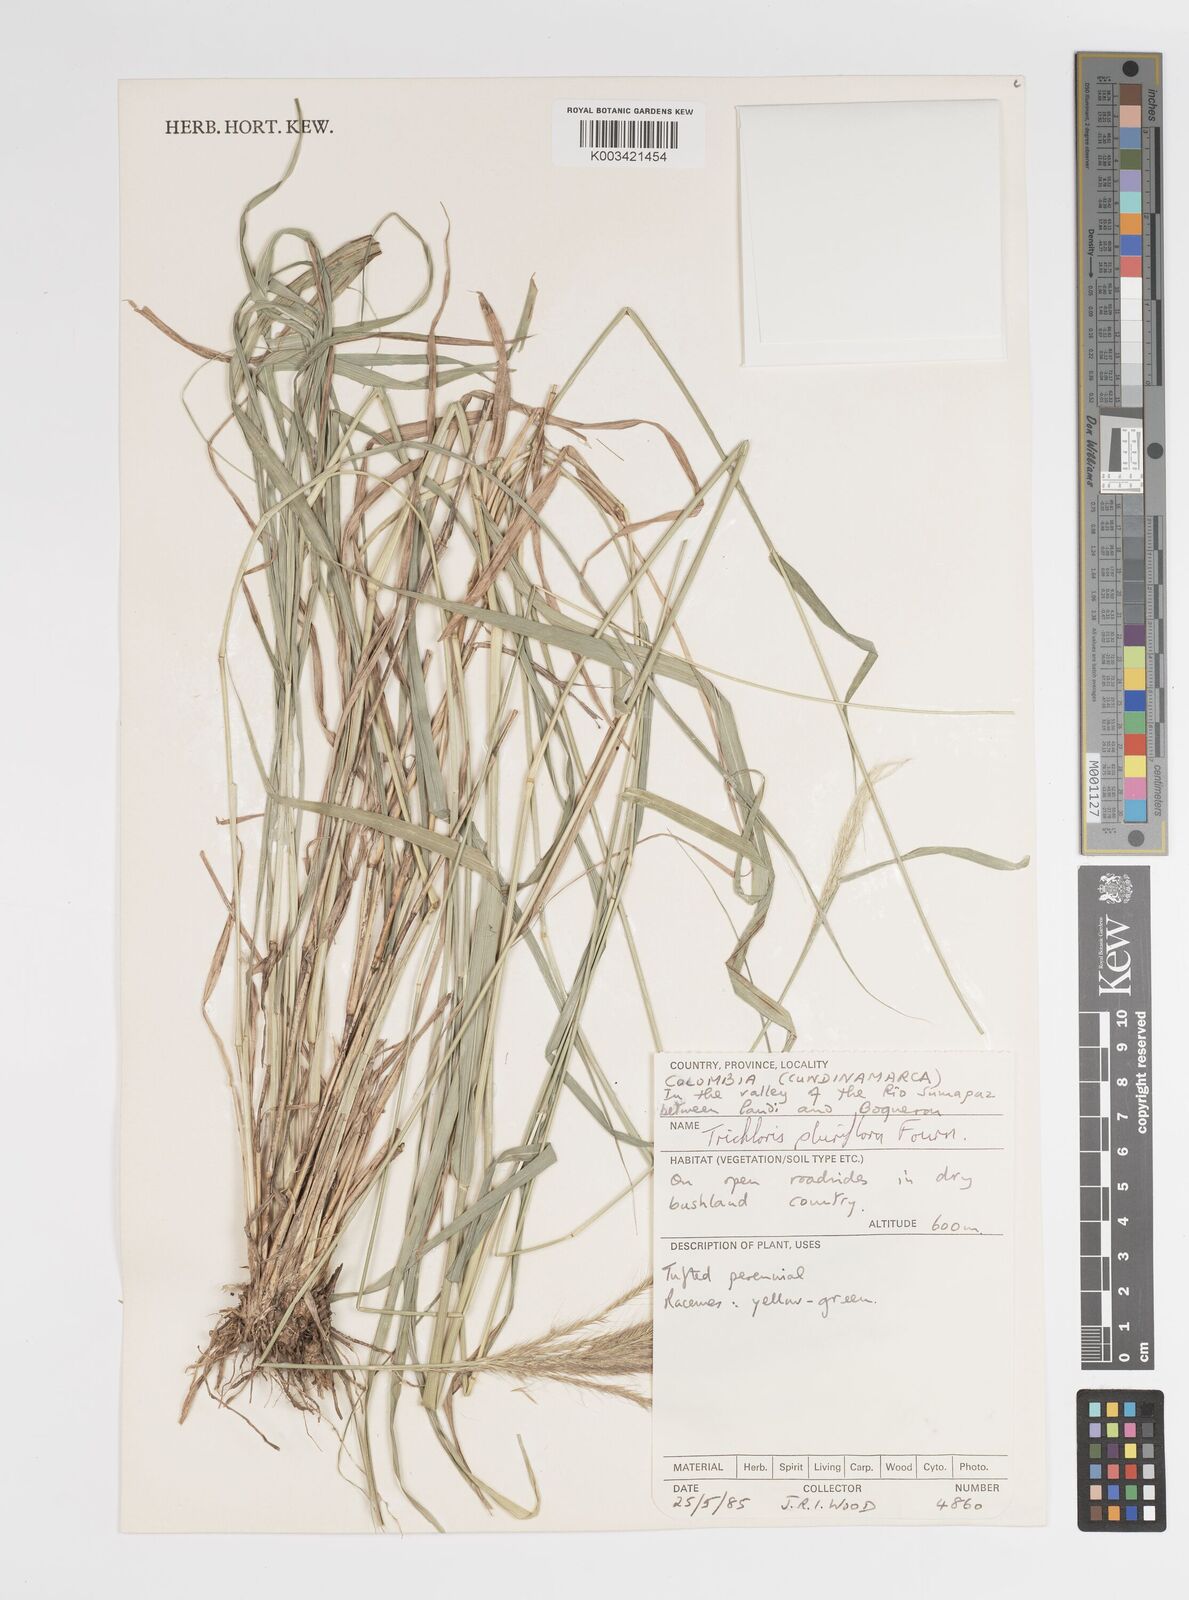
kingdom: Plantae
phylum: Tracheophyta
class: Liliopsida
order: Poales
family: Poaceae
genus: Leptochloa
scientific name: Leptochloa pluriflora
